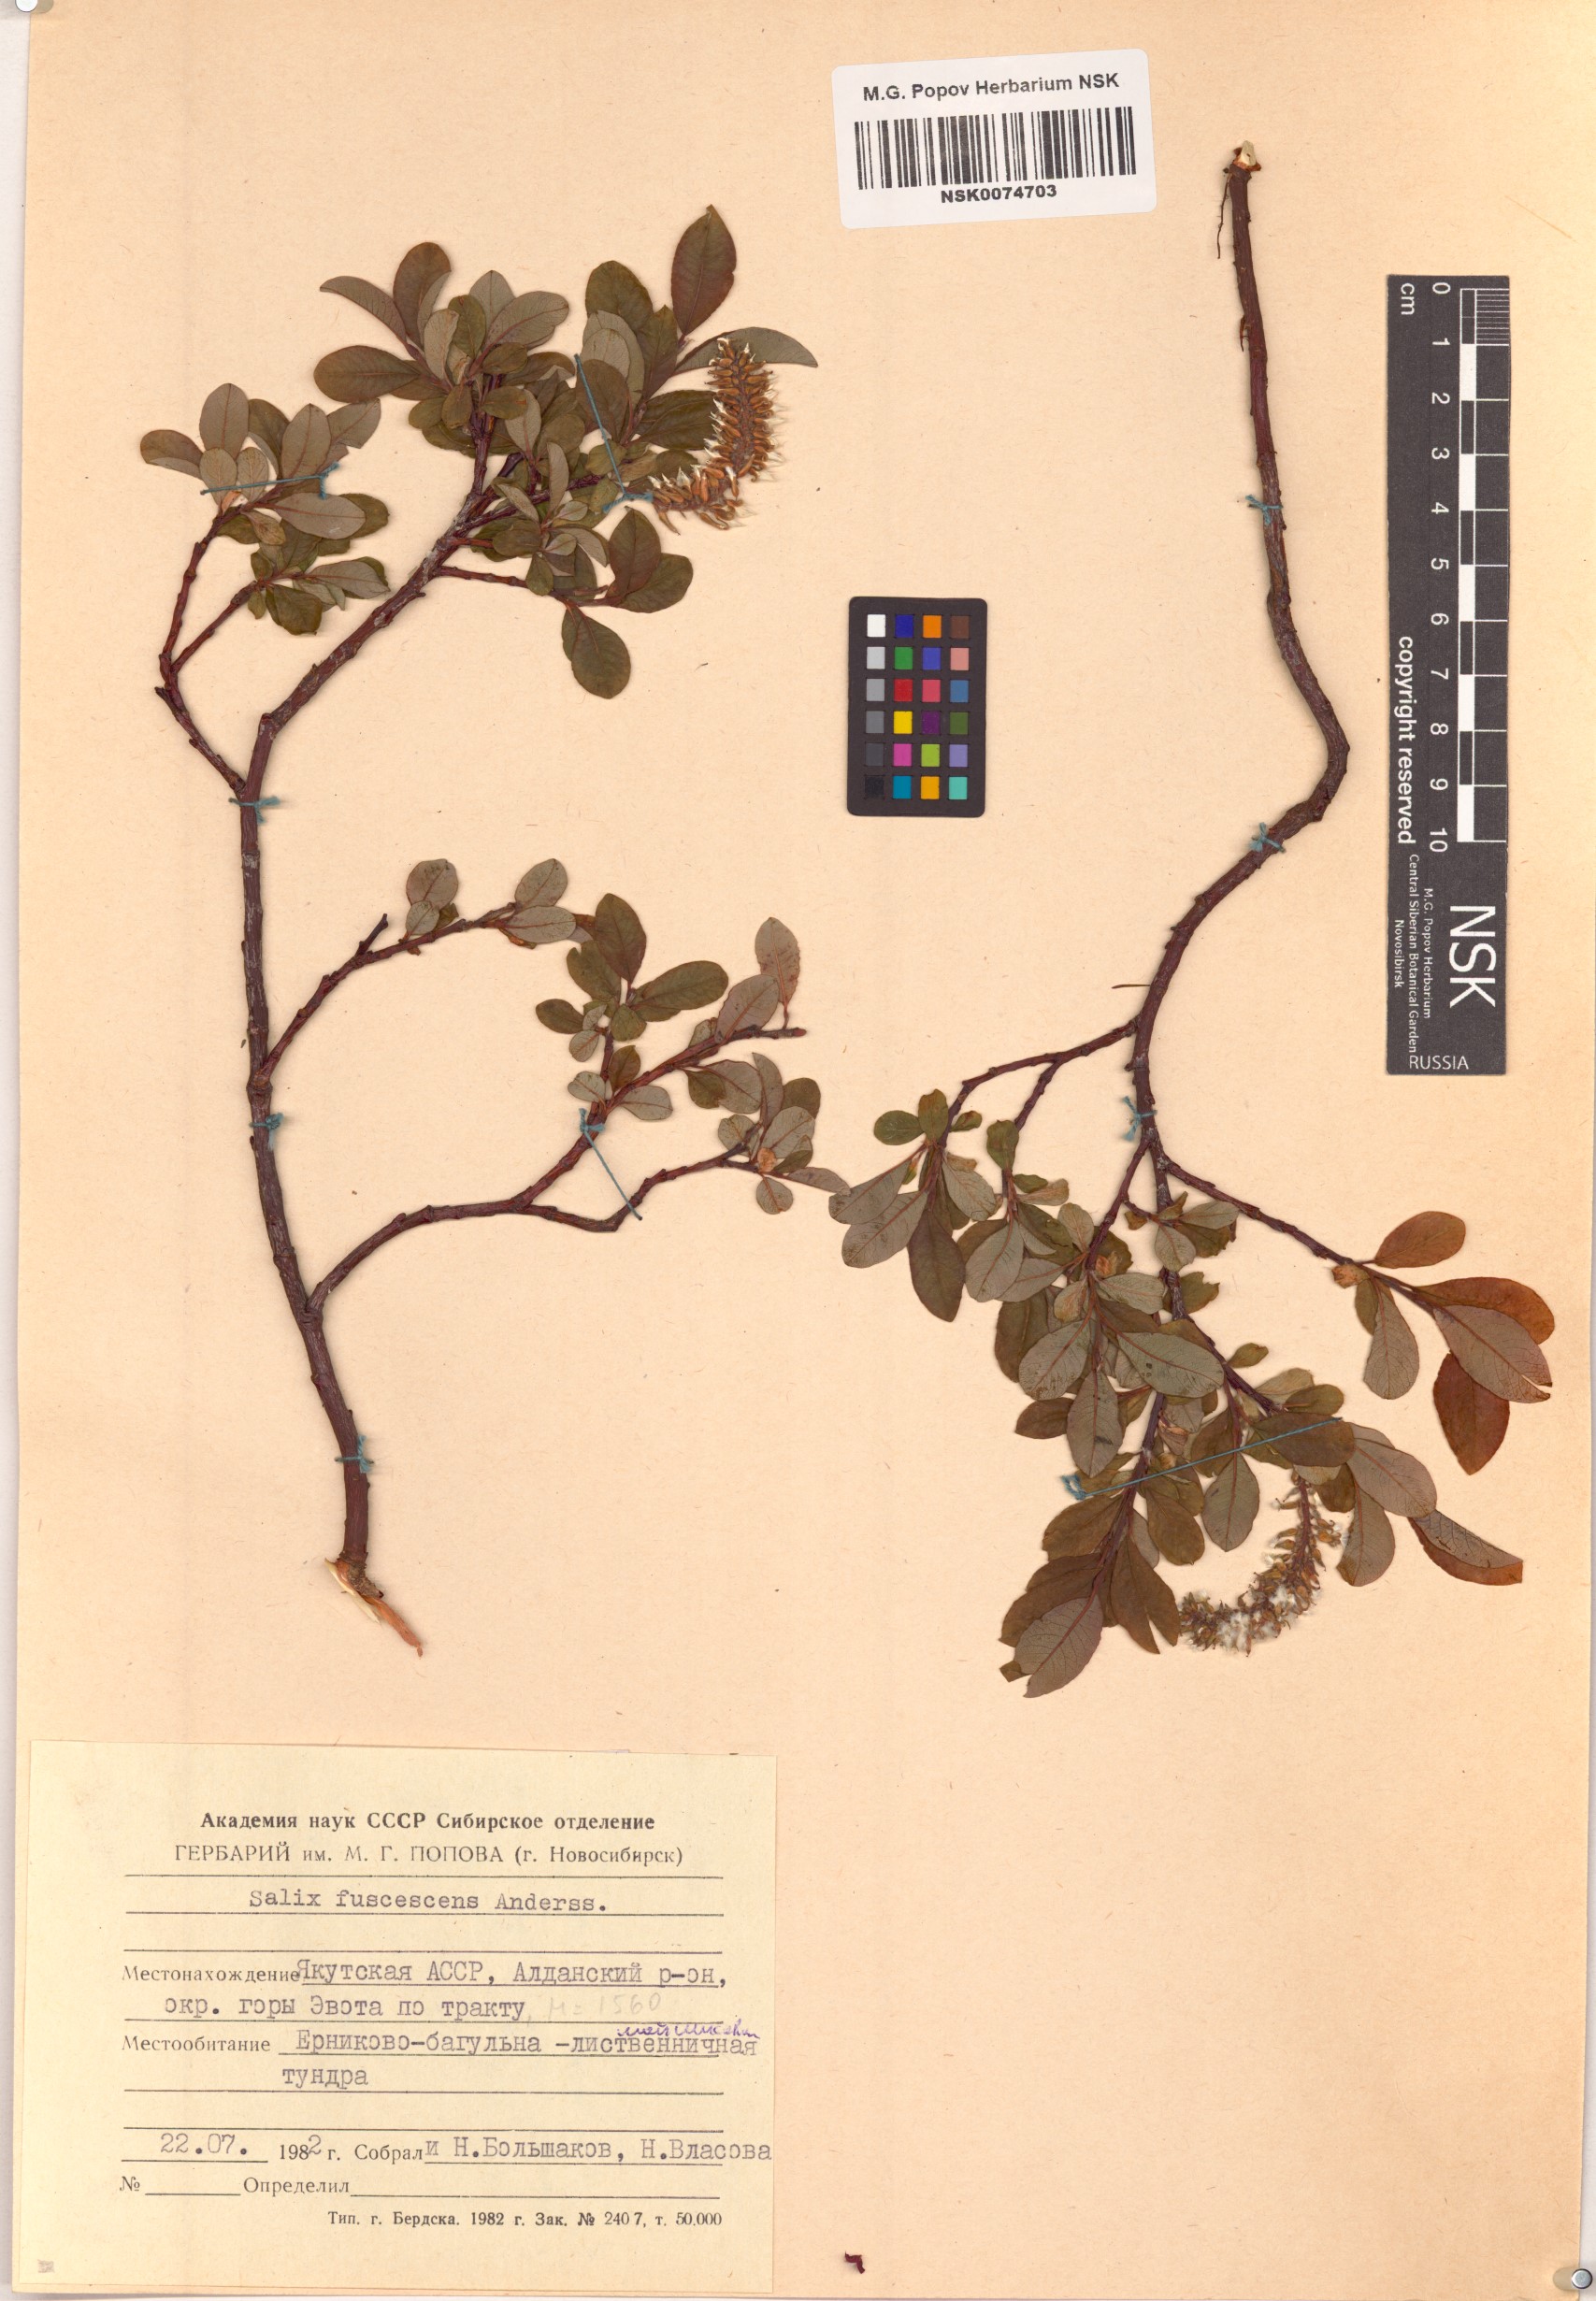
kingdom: Plantae
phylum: Tracheophyta
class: Magnoliopsida
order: Malpighiales
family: Salicaceae
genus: Salix
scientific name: Salix fuscescens
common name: Brownish willow
